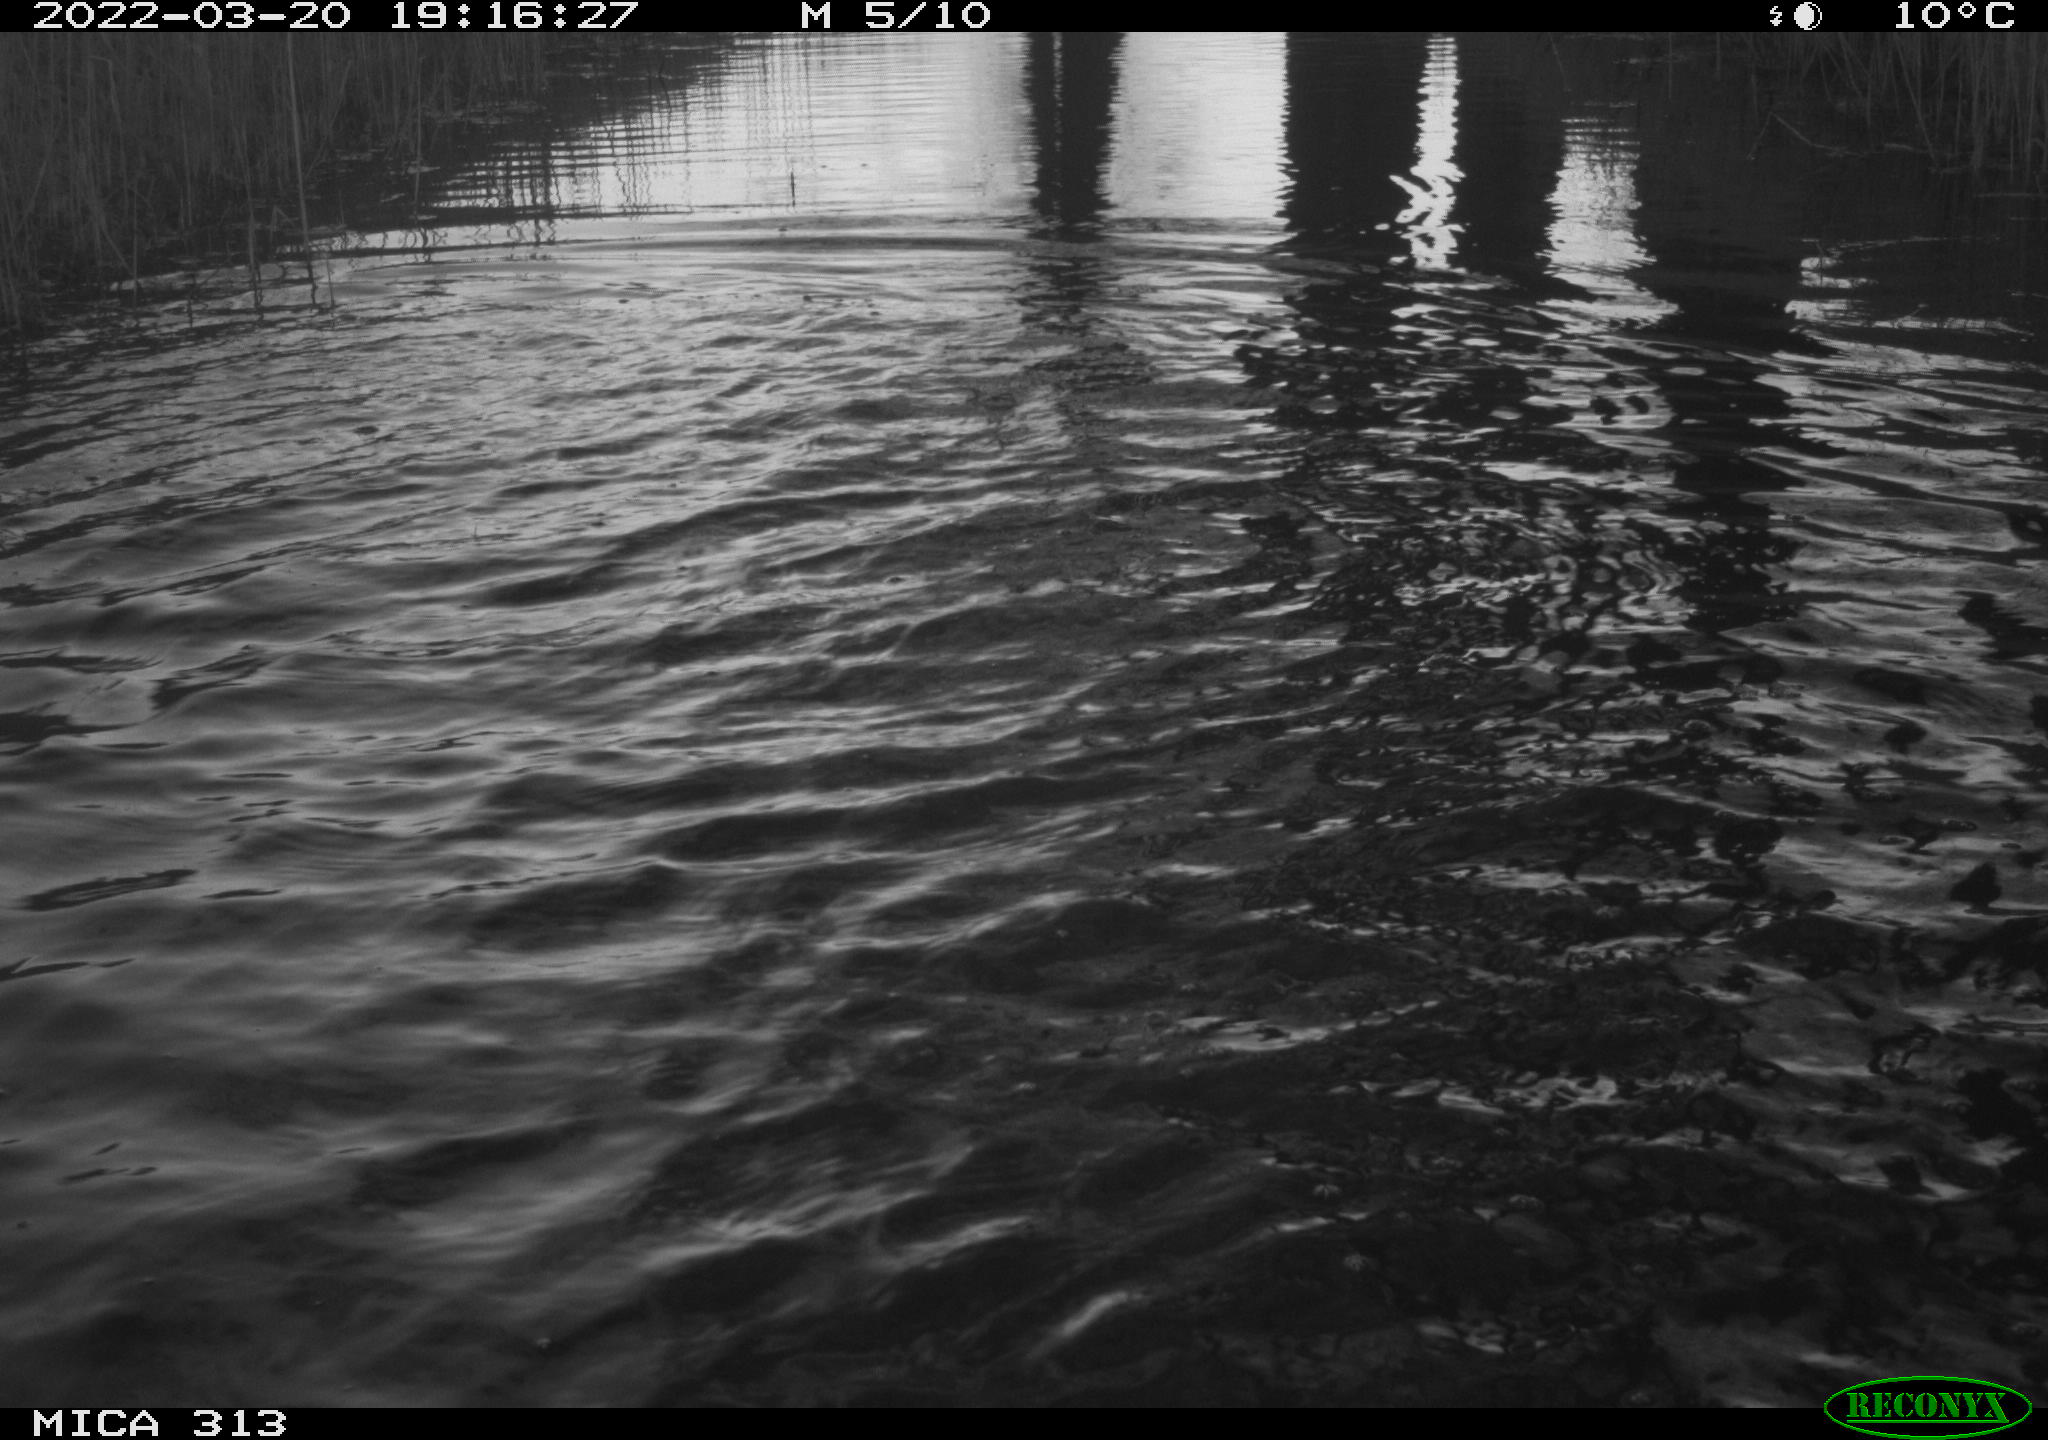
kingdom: Animalia
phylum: Chordata
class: Aves
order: Anseriformes
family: Anatidae
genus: Mareca
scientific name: Mareca strepera
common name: Gadwall
